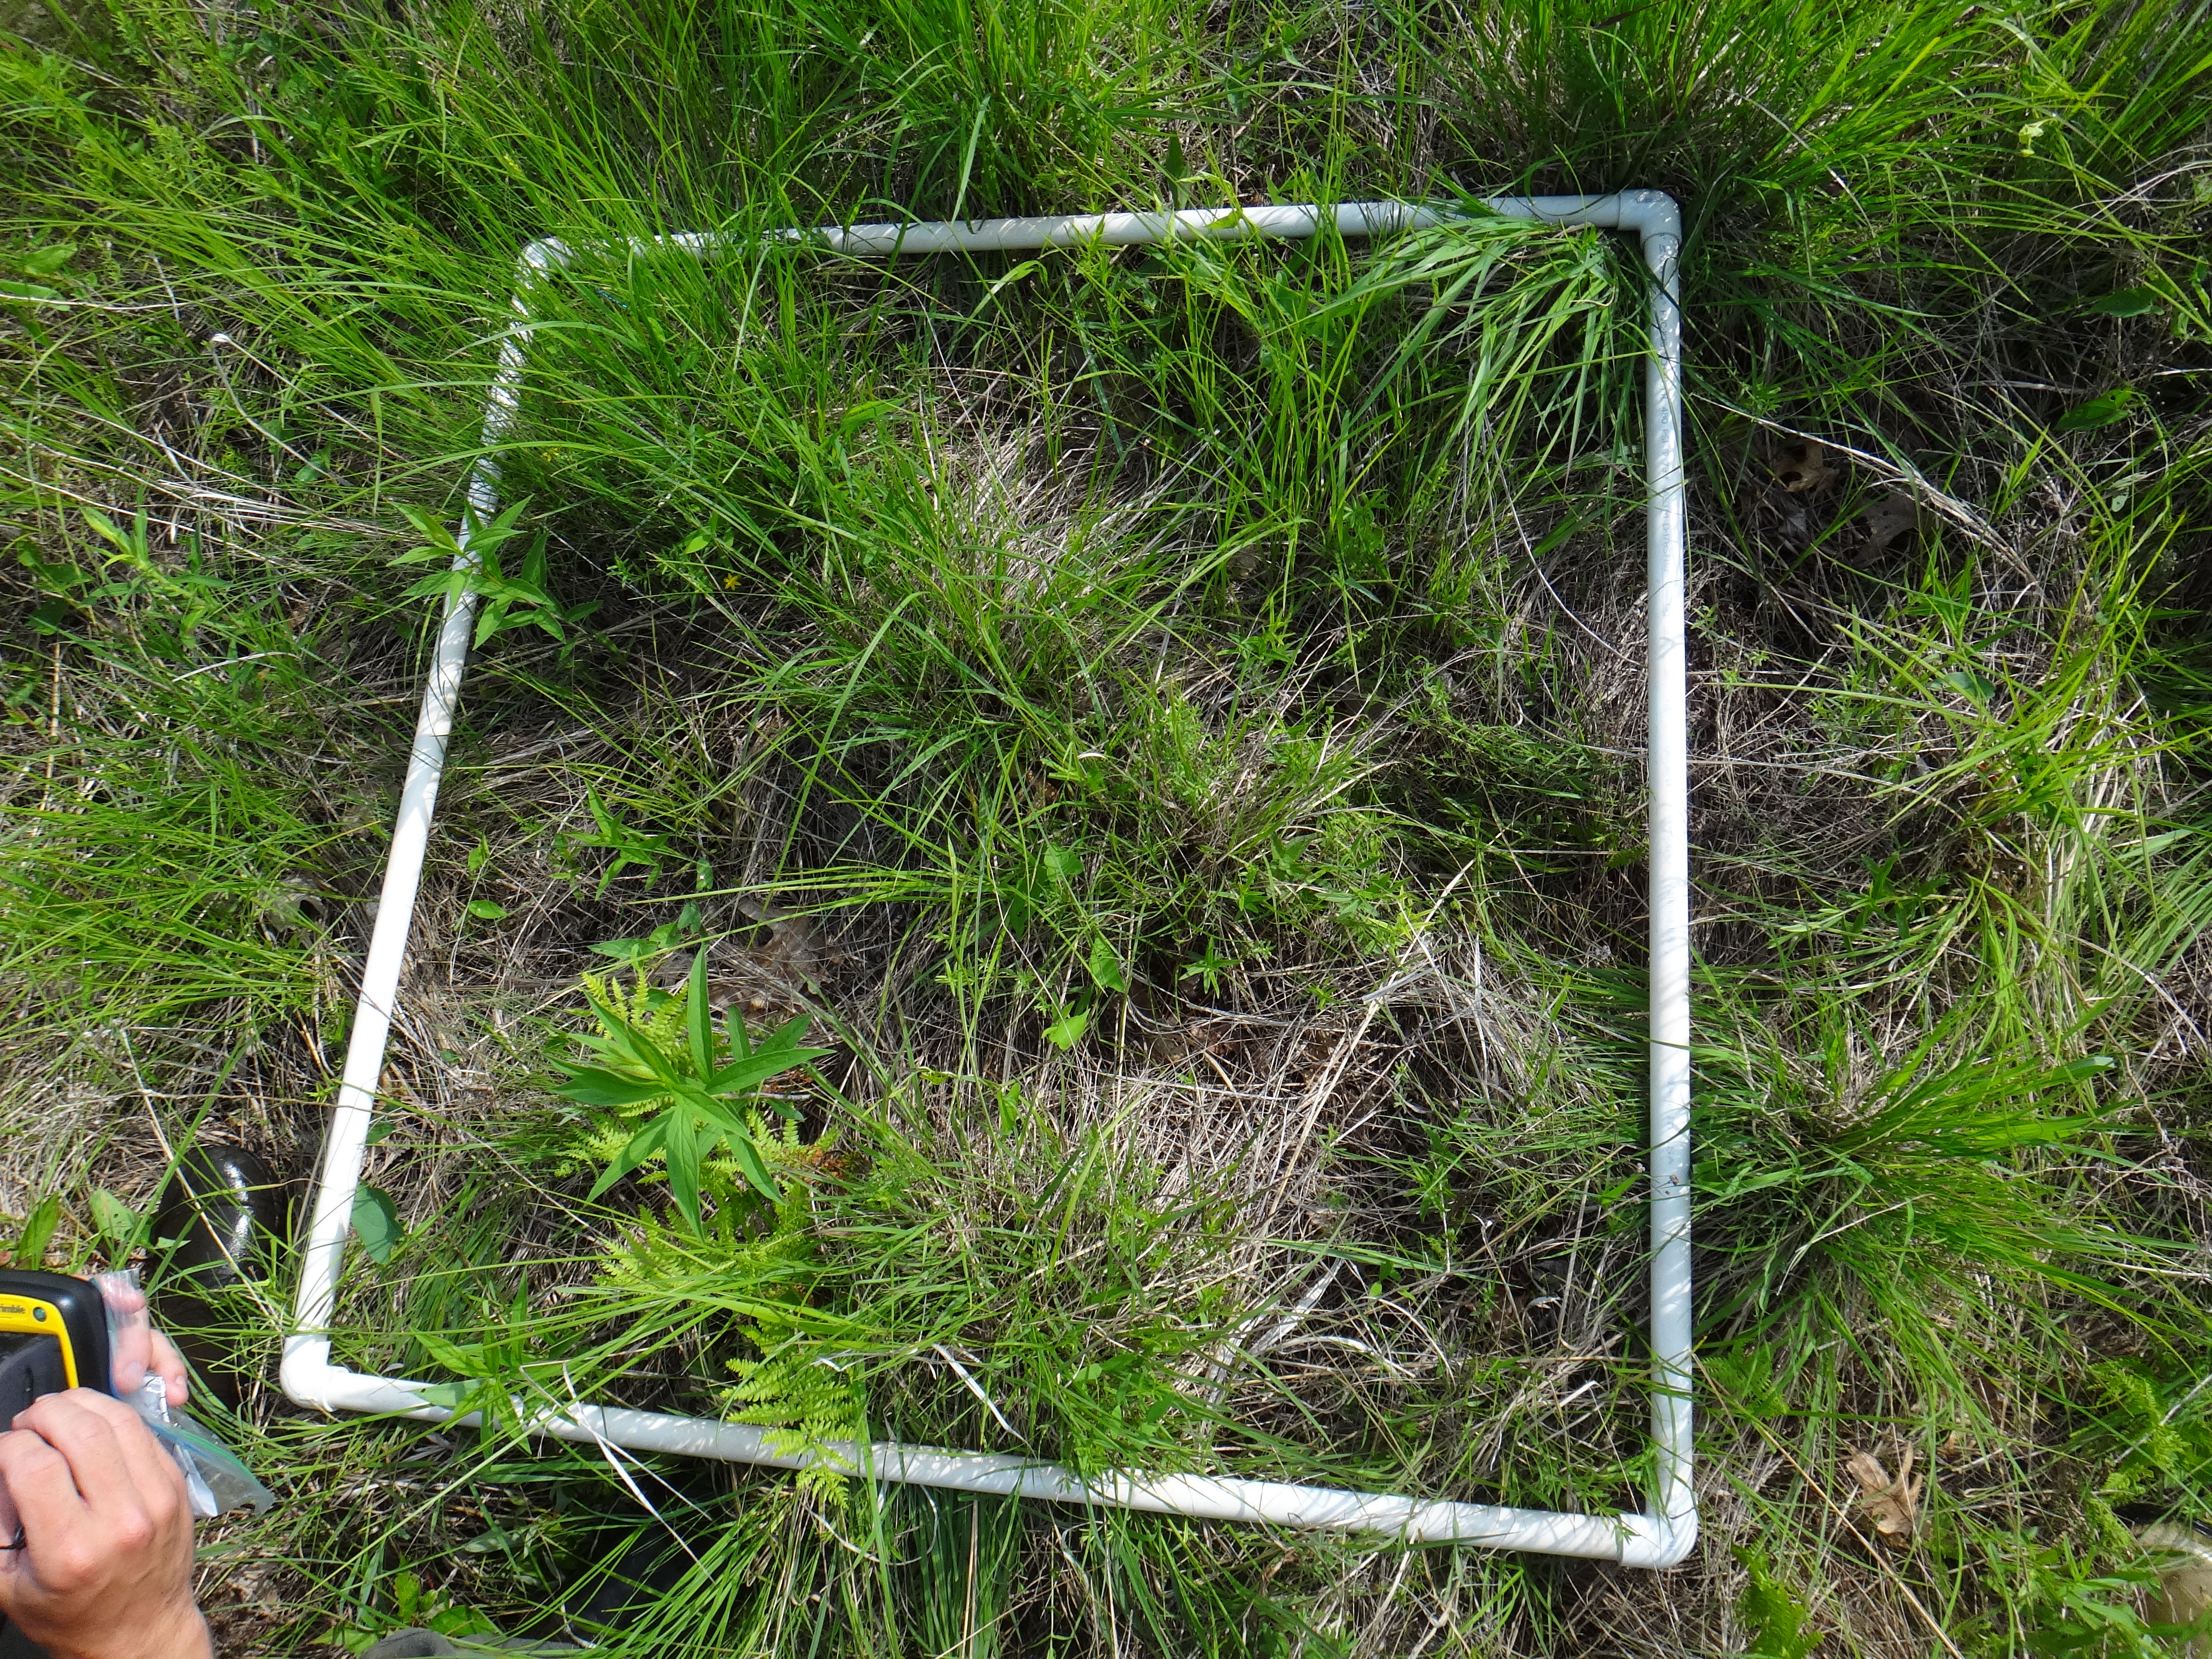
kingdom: Plantae
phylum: Tracheophyta
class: Magnoliopsida
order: Gentianales
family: Rubiaceae
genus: Galium
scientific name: Galium boreale
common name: Northern bedstraw
